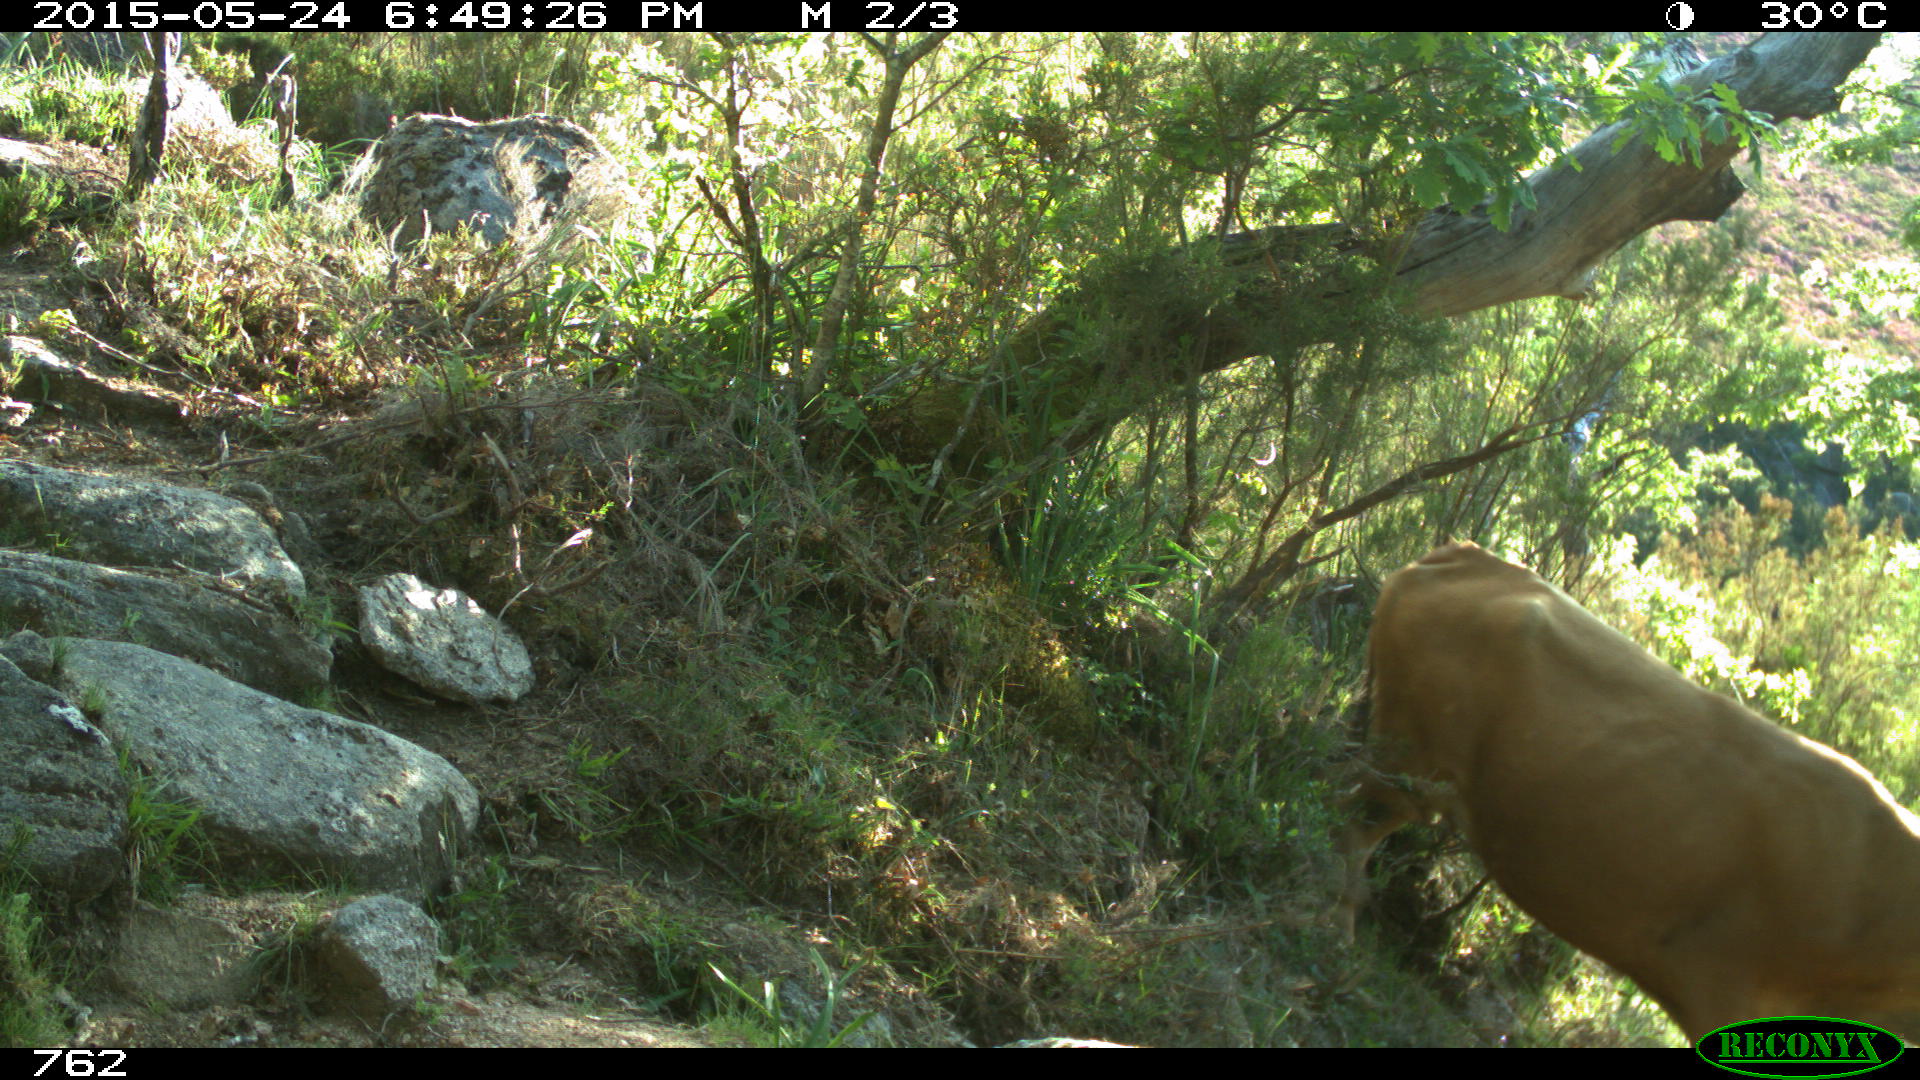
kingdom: Animalia
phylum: Chordata
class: Mammalia
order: Artiodactyla
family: Bovidae
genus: Bos
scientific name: Bos taurus
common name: Domesticated cattle
